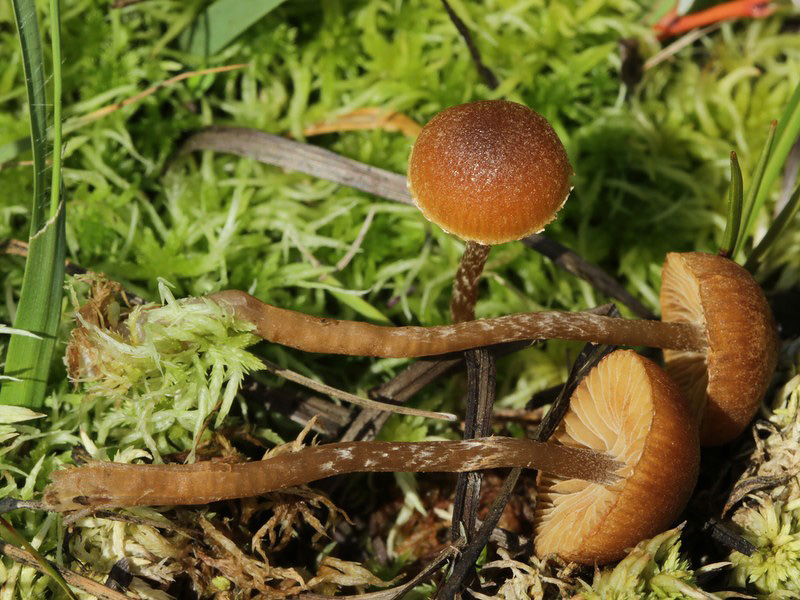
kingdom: Fungi
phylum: Basidiomycota
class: Agaricomycetes
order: Agaricales
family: Hymenogastraceae
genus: Galerina
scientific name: Galerina paludosa
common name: mose-hjelmhat
